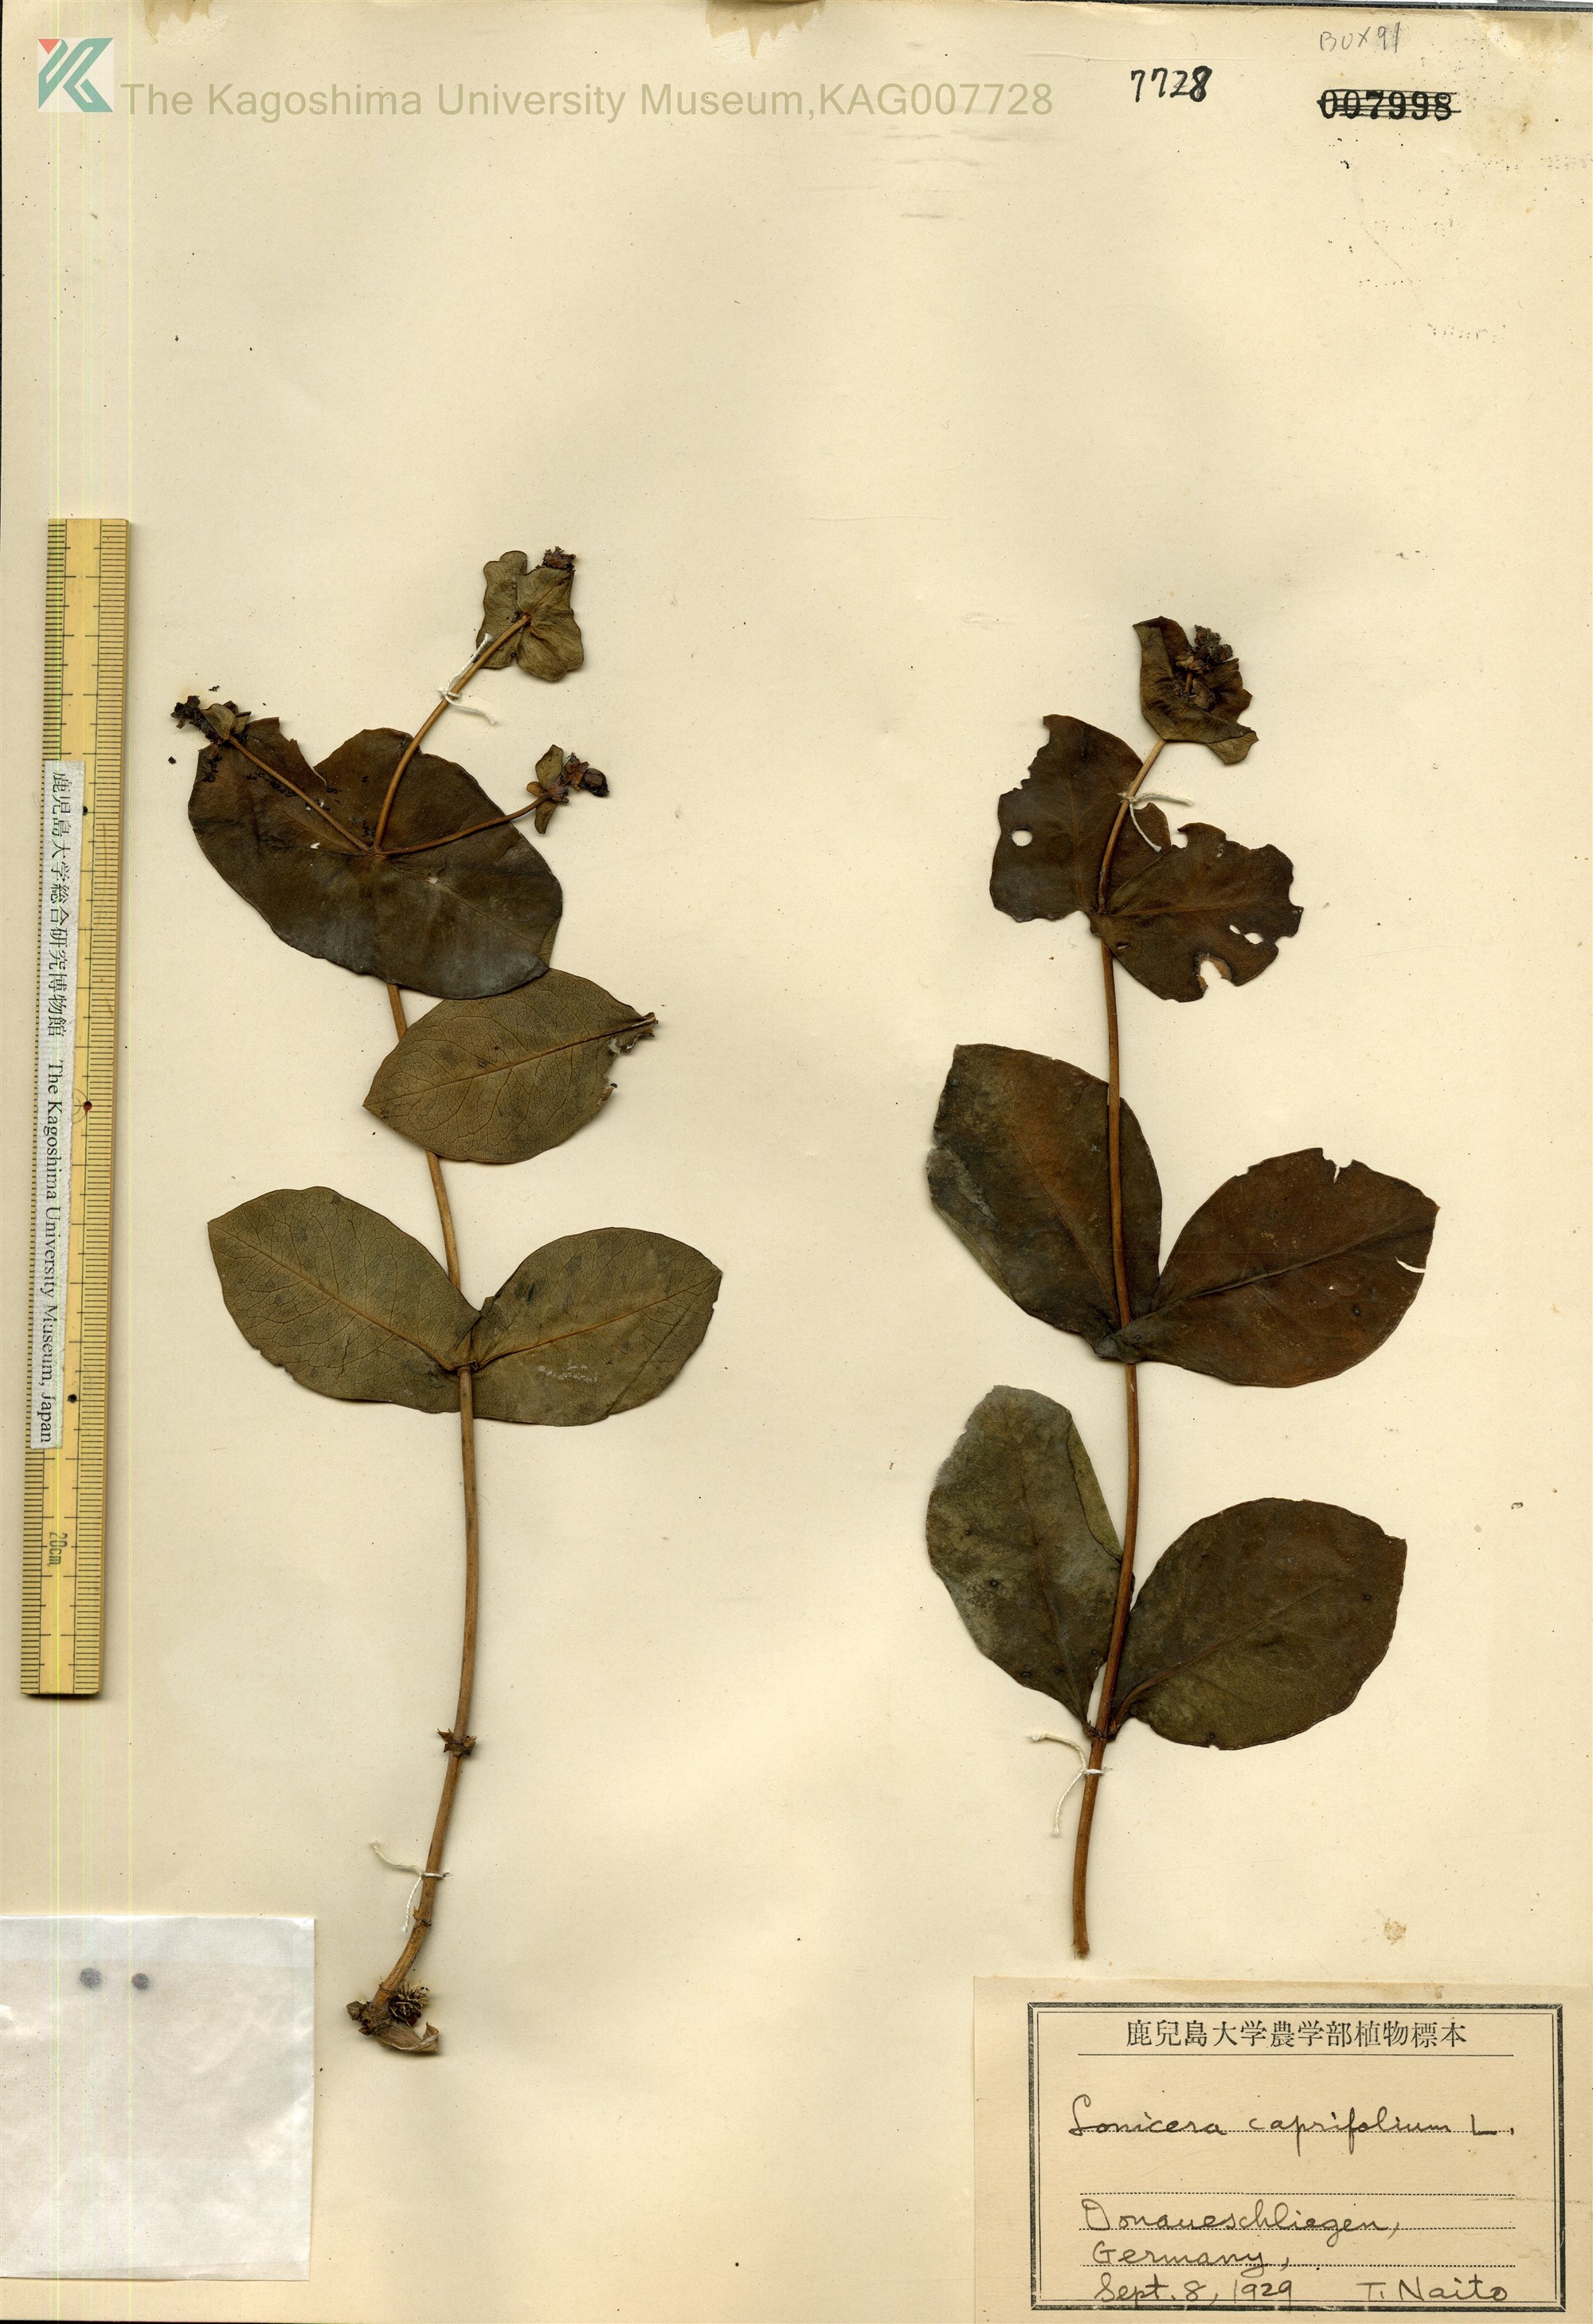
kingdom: Plantae
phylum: Tracheophyta
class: Magnoliopsida
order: Dipsacales
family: Caprifoliaceae
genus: Lonicera
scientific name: Lonicera caprifolium
